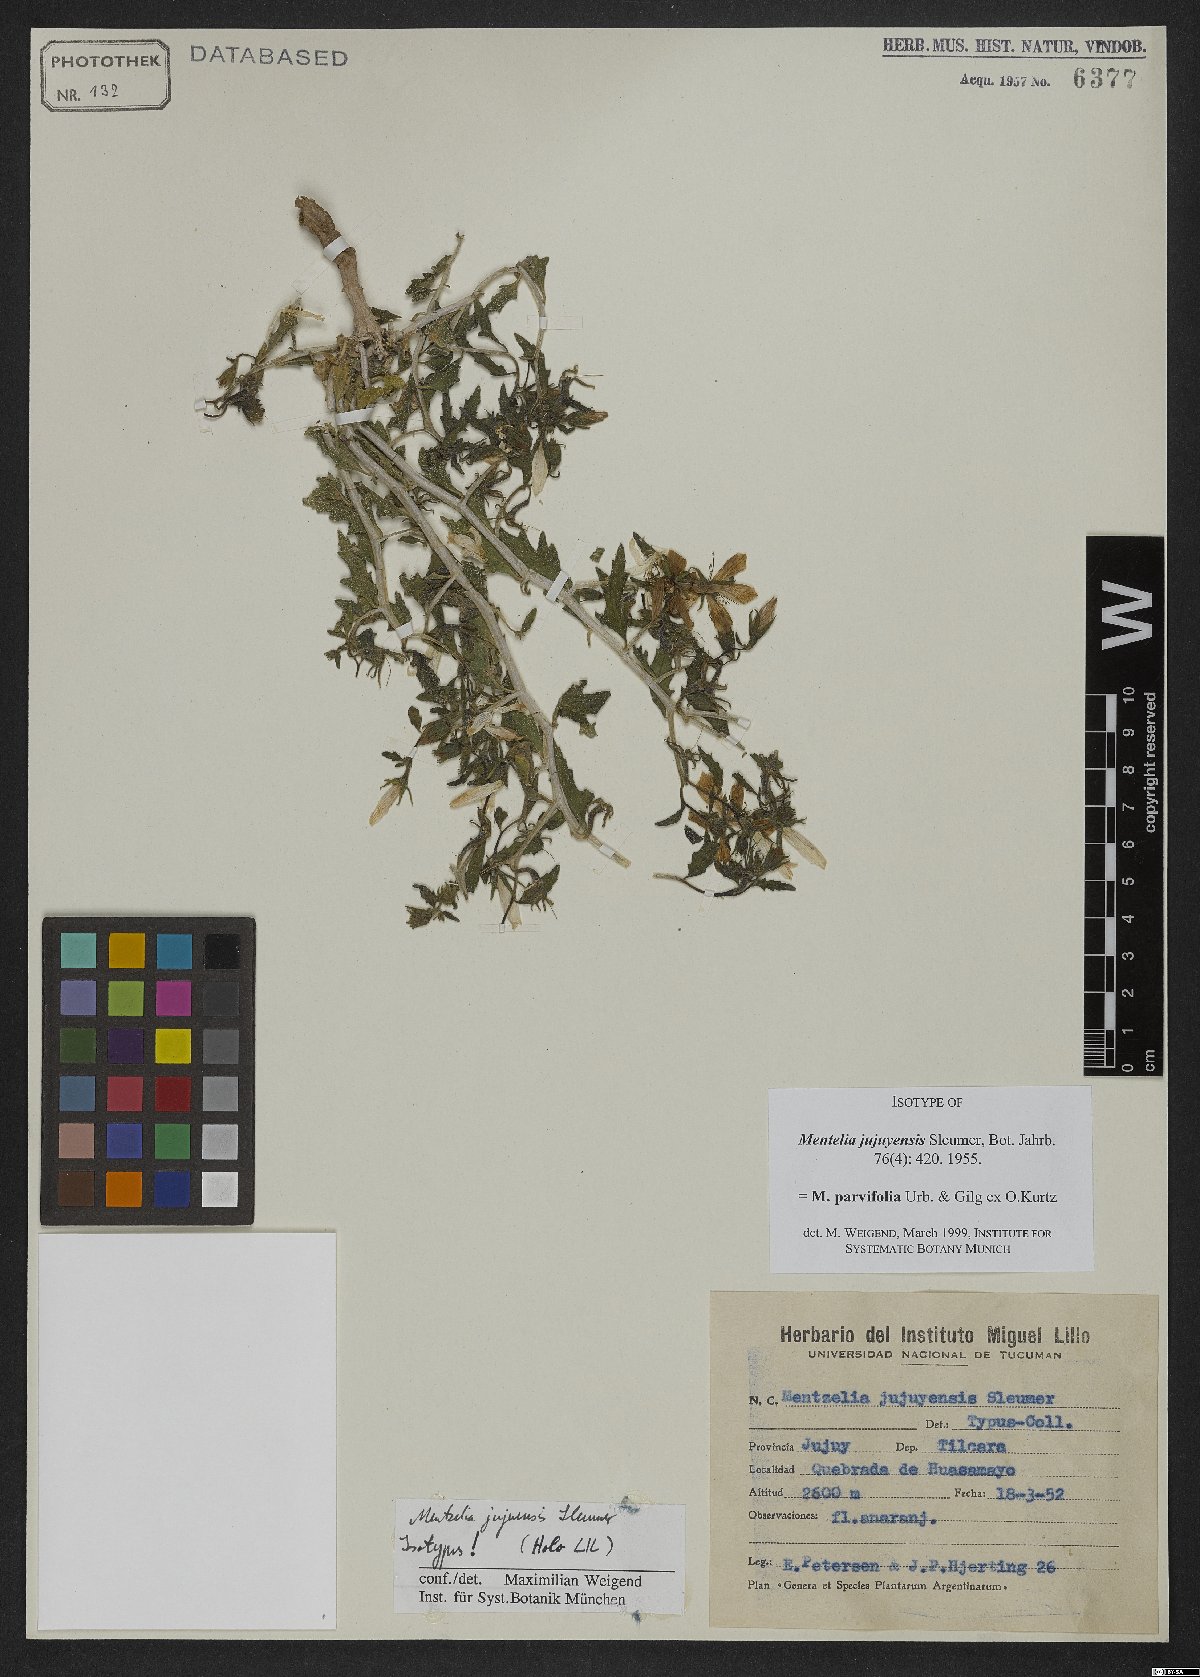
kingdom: Plantae
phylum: Tracheophyta
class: Magnoliopsida
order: Cornales
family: Loasaceae
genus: Mentzelia
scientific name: Mentzelia parvifolia
